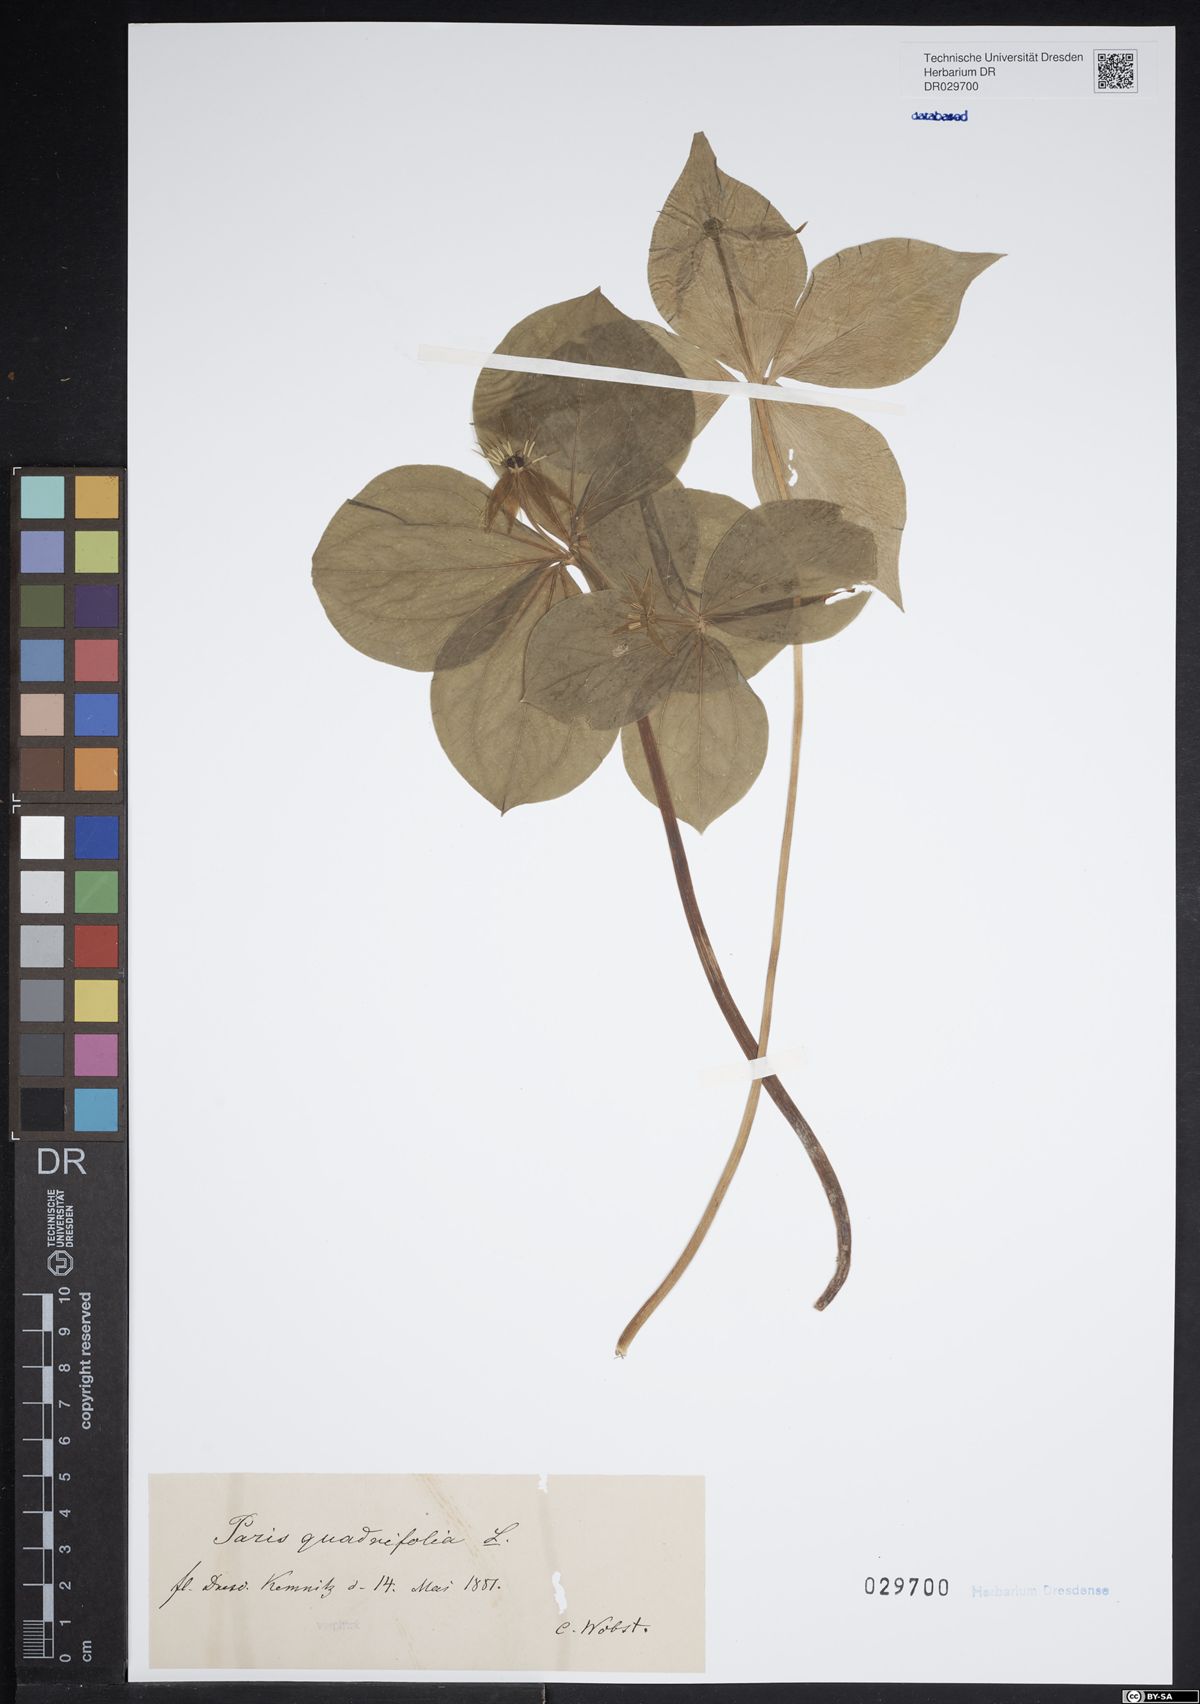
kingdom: Plantae
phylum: Tracheophyta
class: Liliopsida
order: Liliales
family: Melanthiaceae
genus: Paris
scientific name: Paris quadrifolia
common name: Herb-paris
